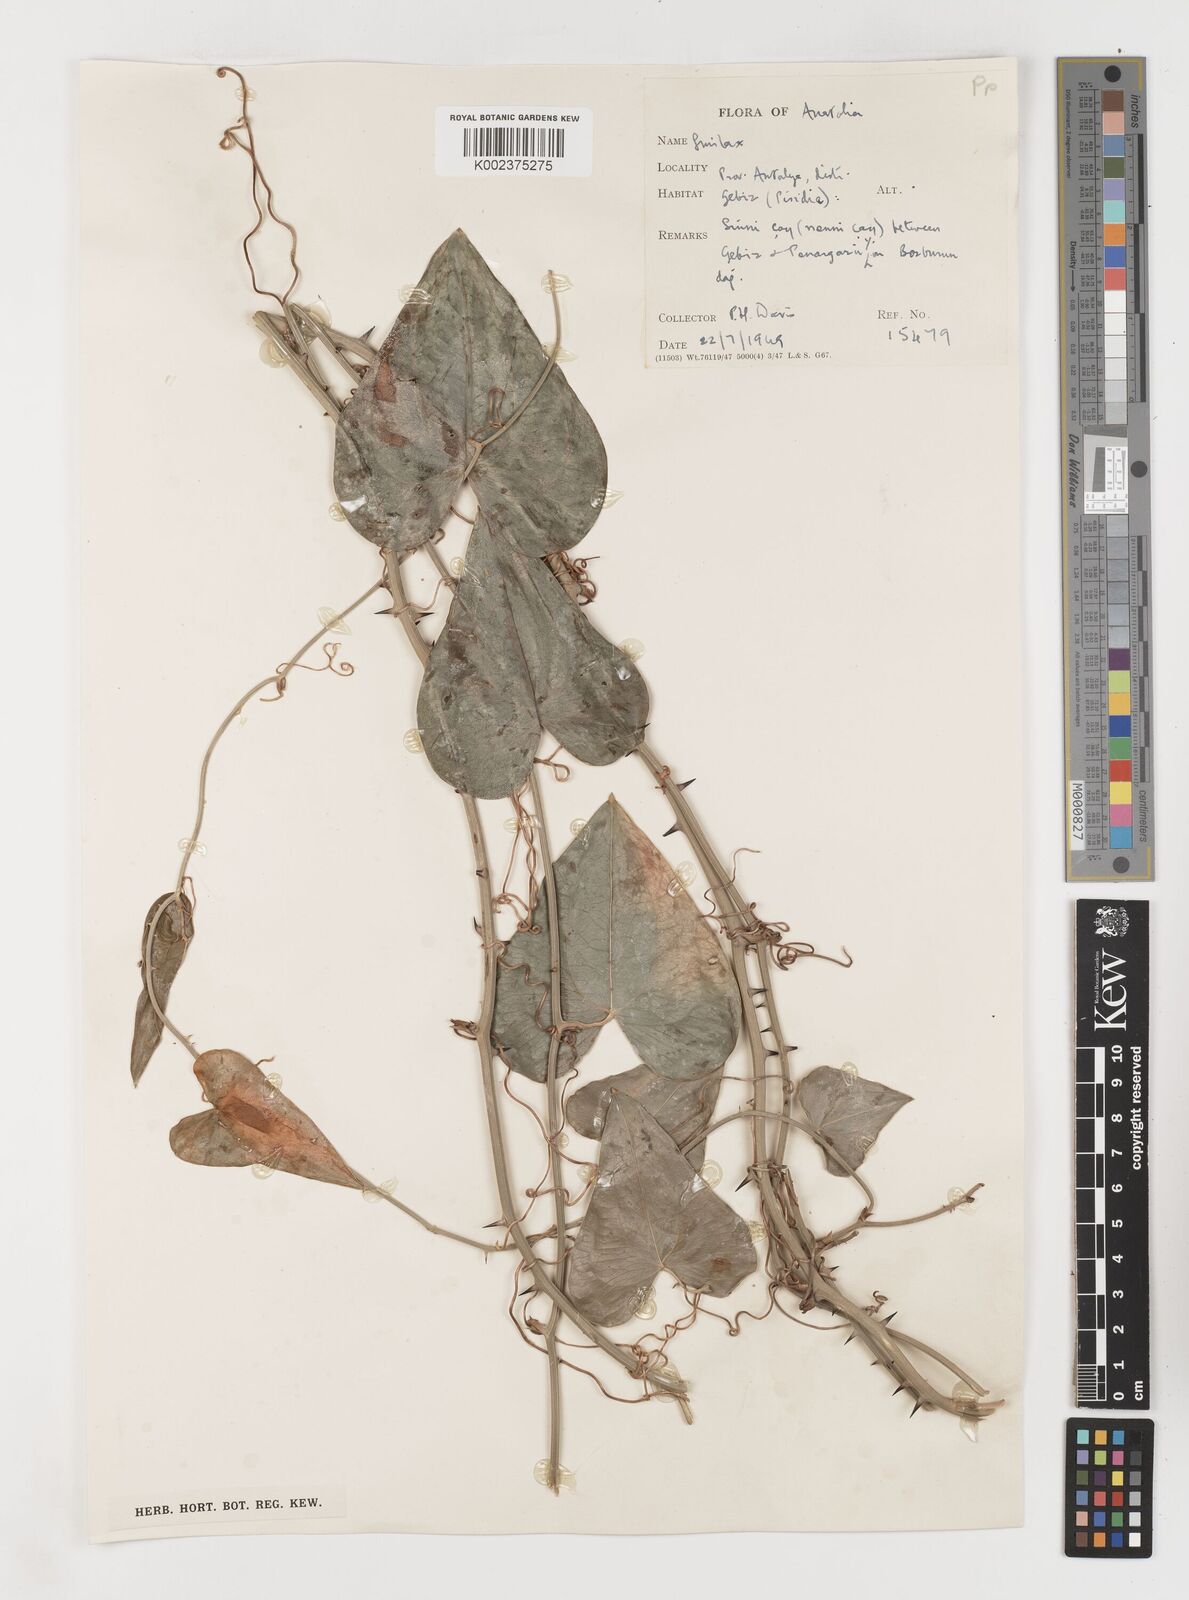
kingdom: Plantae
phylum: Tracheophyta
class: Liliopsida
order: Liliales
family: Smilacaceae
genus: Smilax
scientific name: Smilax excelsa
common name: Larger smilax
